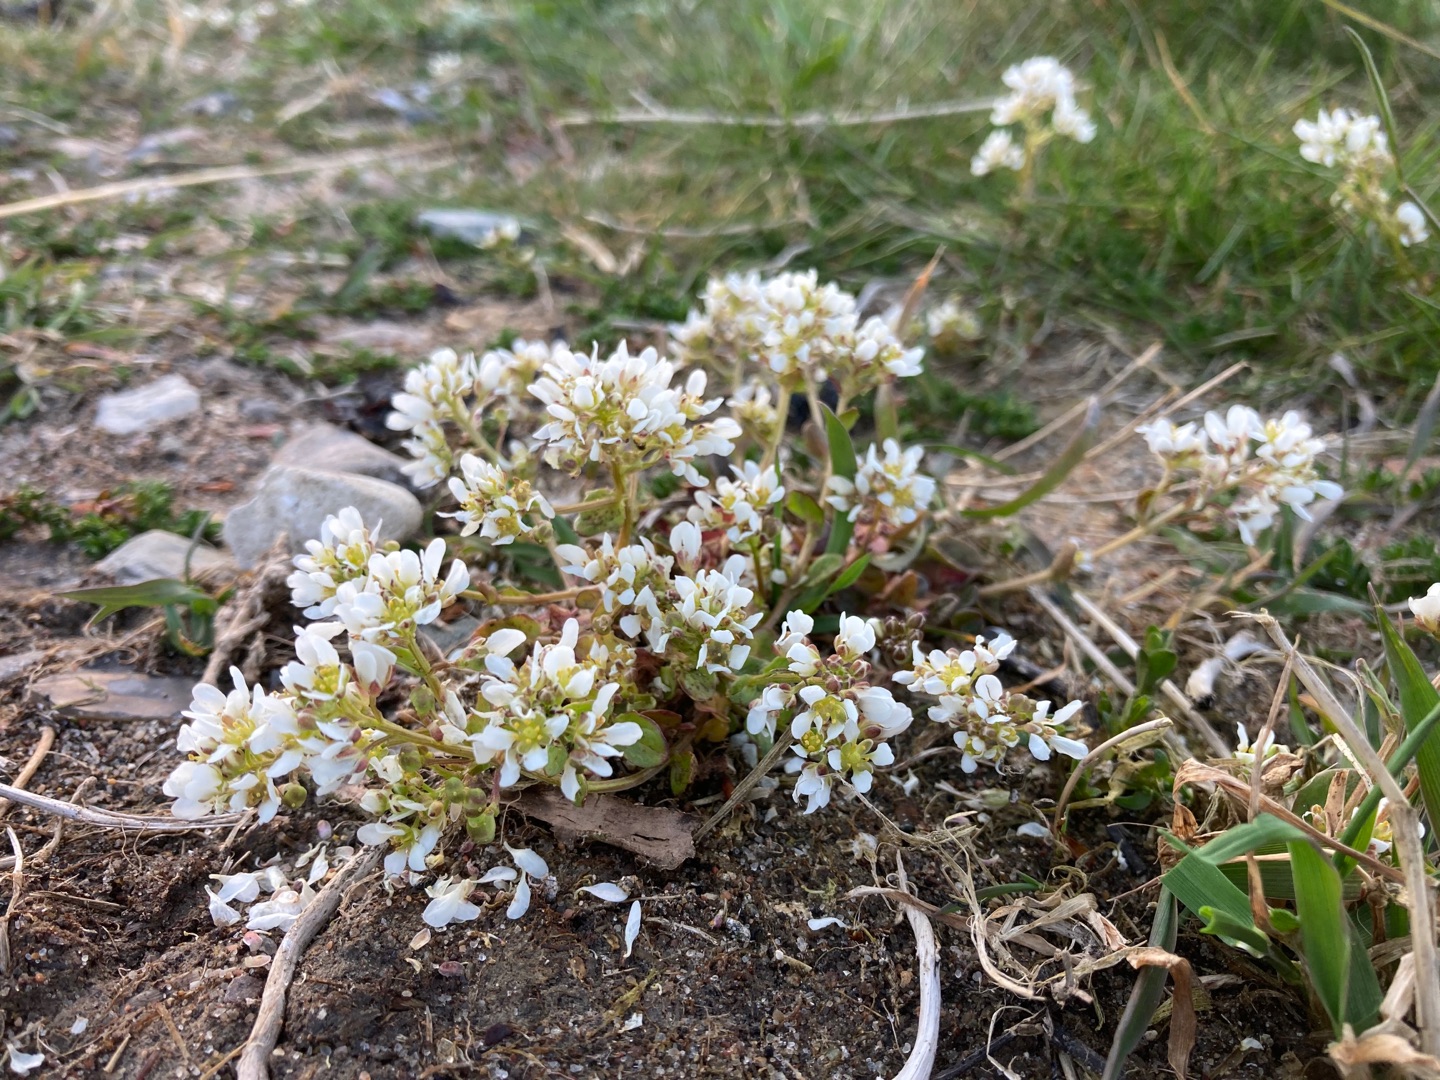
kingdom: Plantae
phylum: Tracheophyta
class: Magnoliopsida
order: Brassicales
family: Brassicaceae
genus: Cochlearia
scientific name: Cochlearia officinalis
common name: Læge-kokleare
